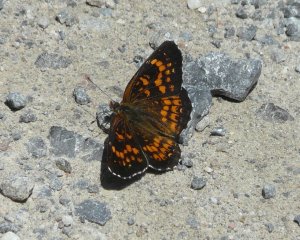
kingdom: Animalia
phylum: Arthropoda
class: Insecta
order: Lepidoptera
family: Nymphalidae
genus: Chlosyne
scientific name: Chlosyne harrisii
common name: Harris's Checkerspot
